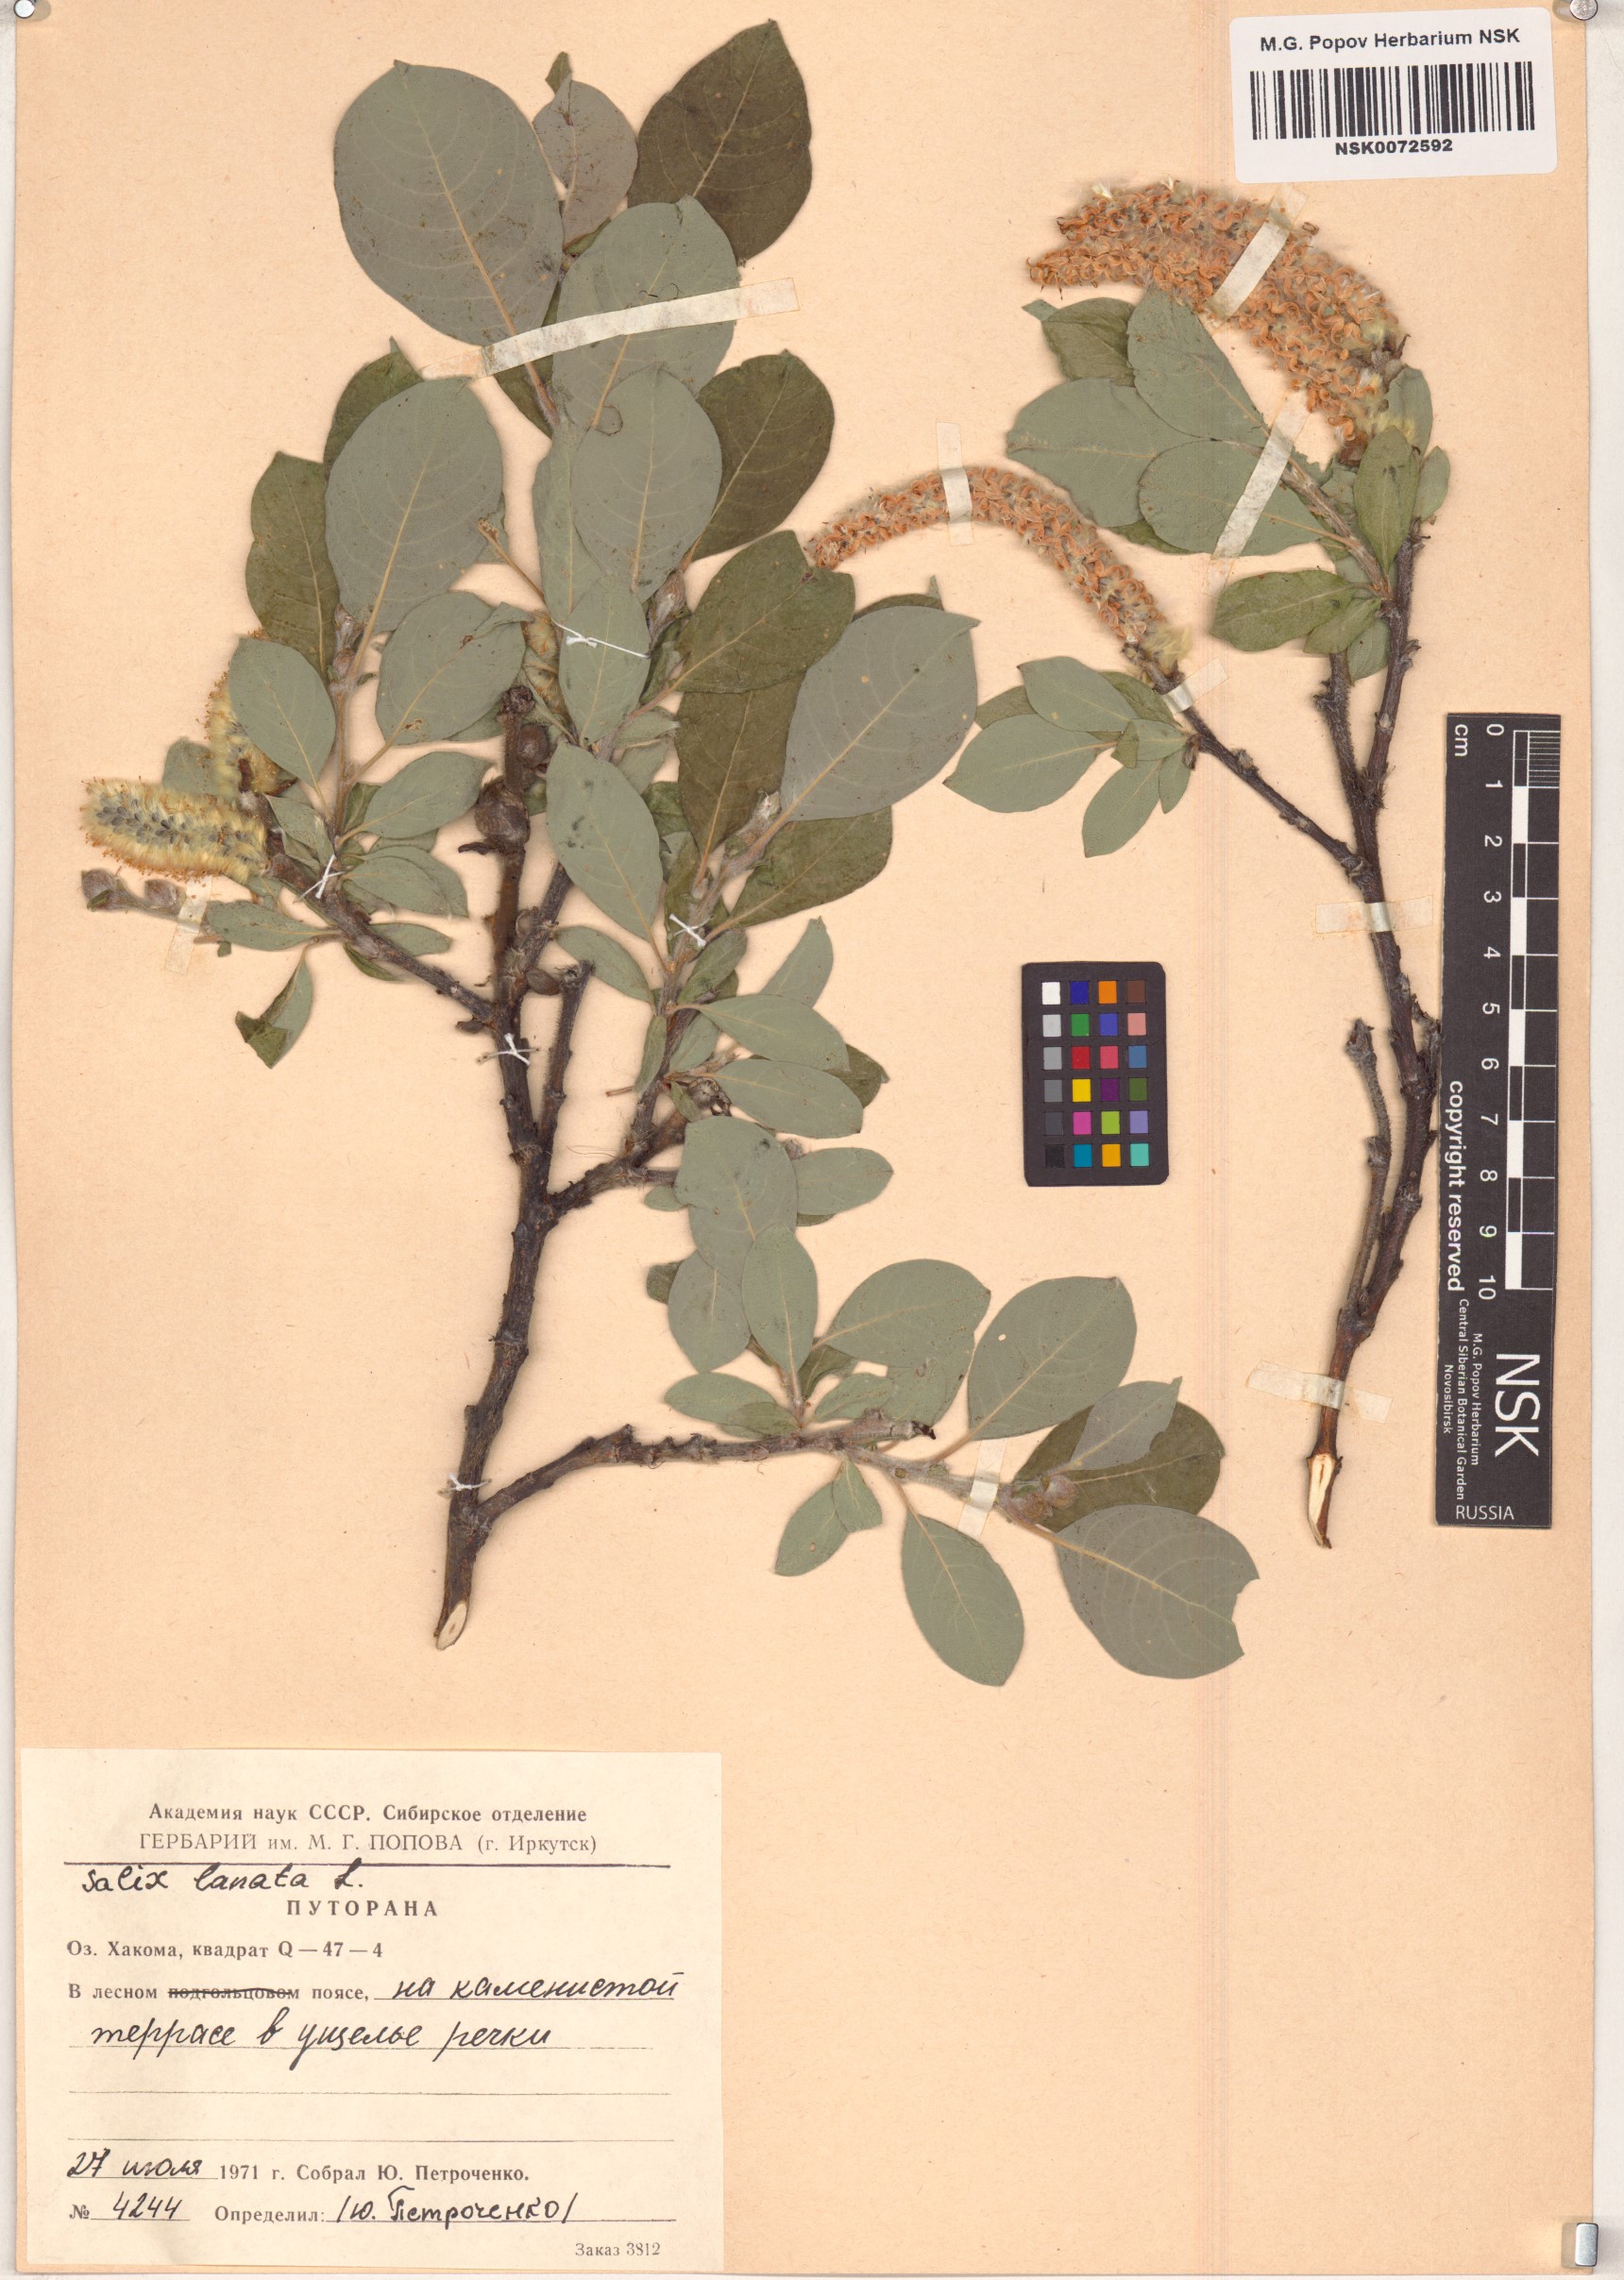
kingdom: Plantae
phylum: Tracheophyta
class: Magnoliopsida
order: Malpighiales
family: Salicaceae
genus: Salix
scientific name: Salix lanata
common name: Woolly willow
